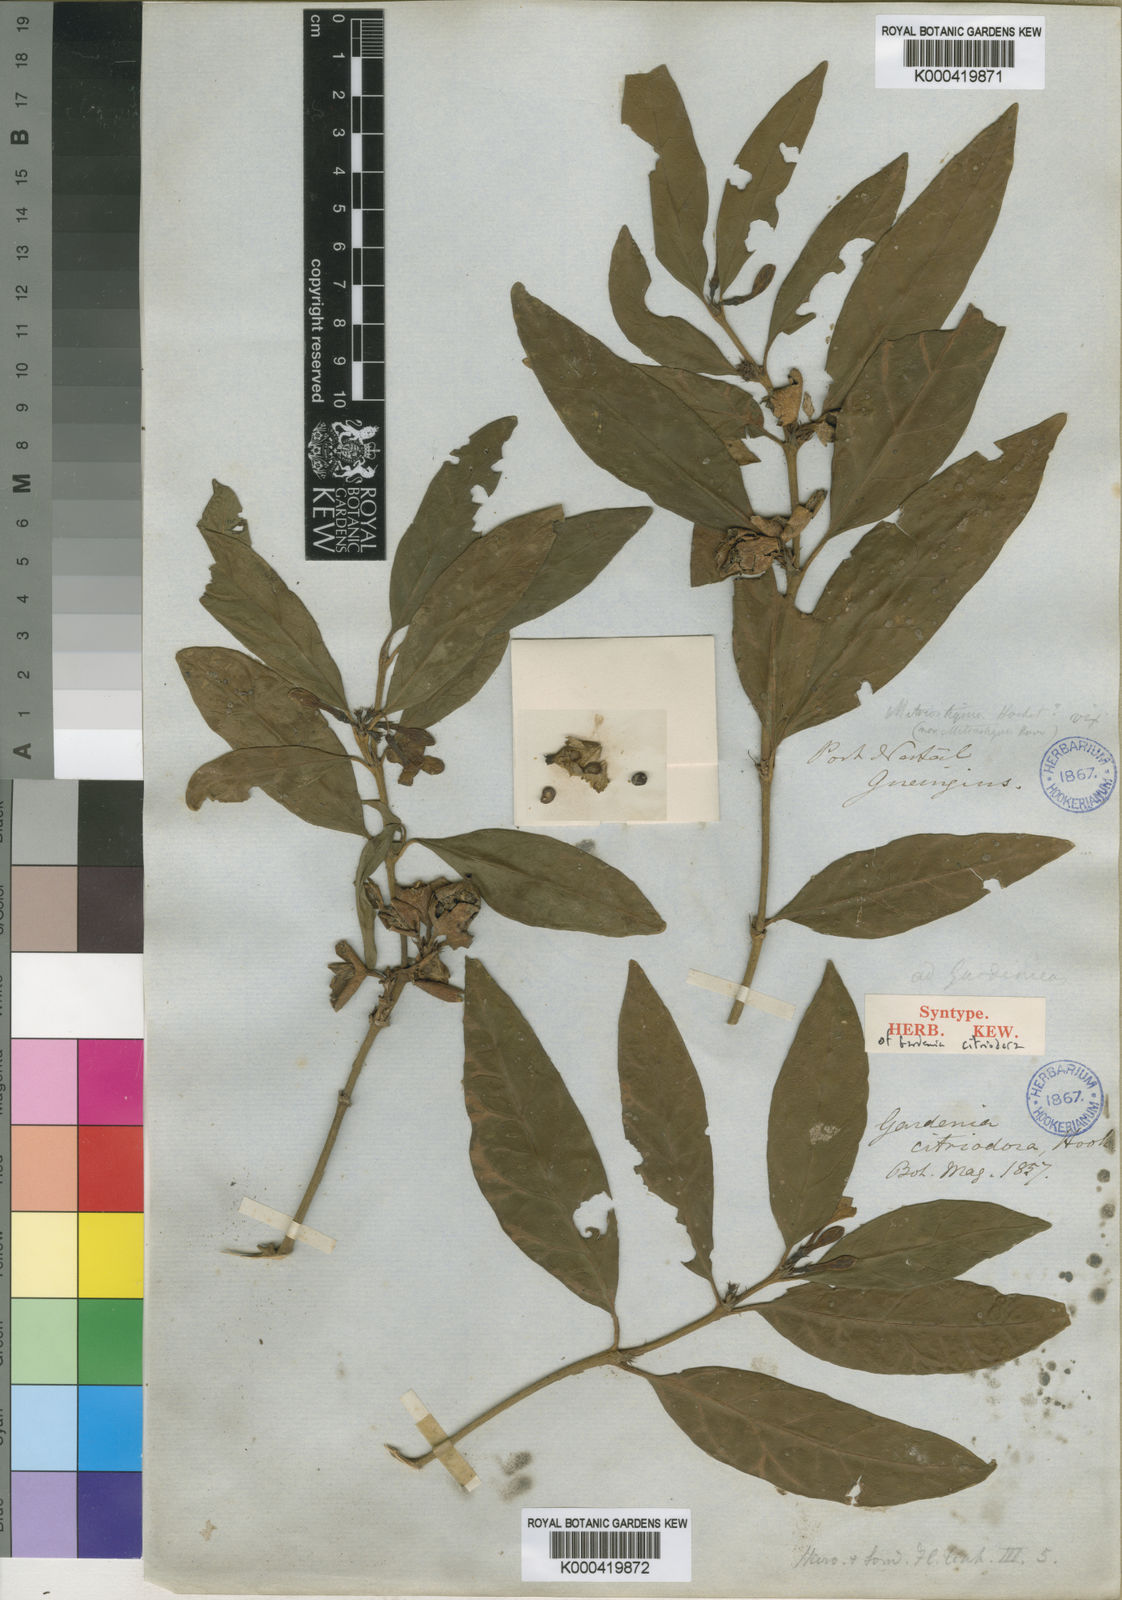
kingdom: Plantae
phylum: Tracheophyta
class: Magnoliopsida
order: Gentianales
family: Rubiaceae
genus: Mitriostigma
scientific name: Mitriostigma axillare
